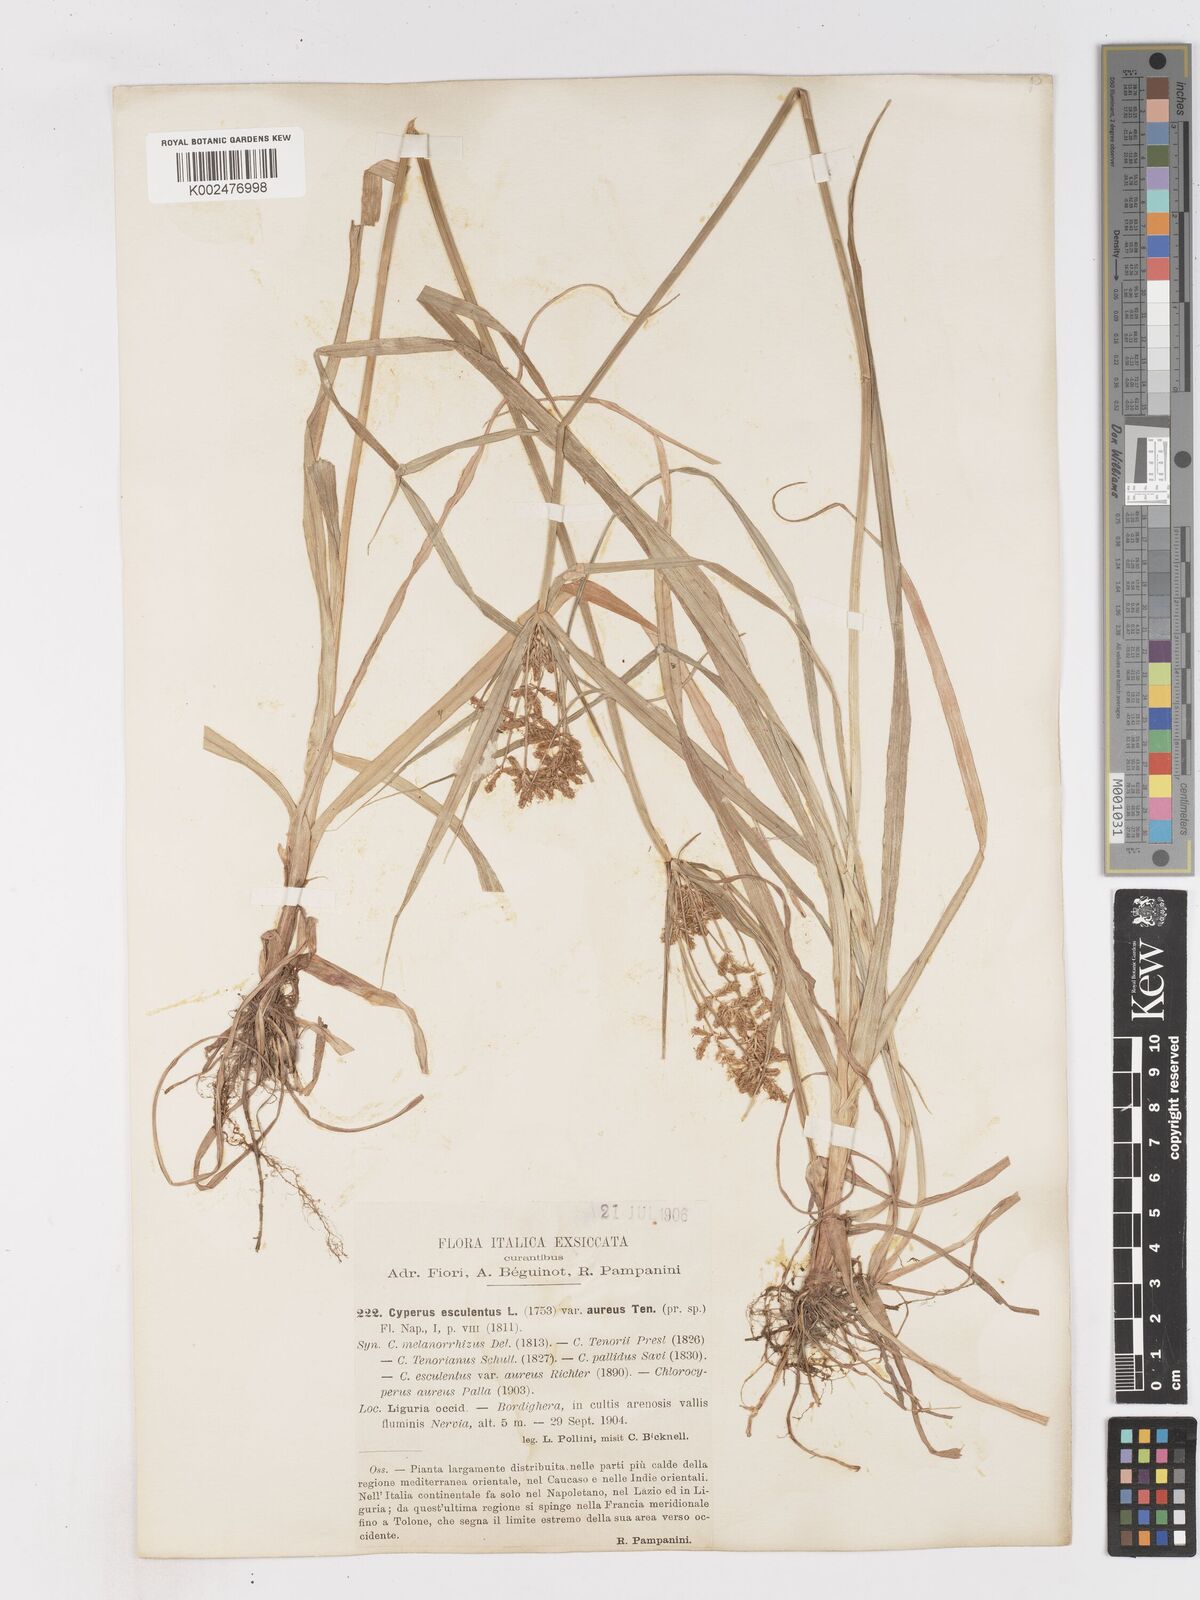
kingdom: Plantae
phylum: Tracheophyta
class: Liliopsida
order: Poales
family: Cyperaceae
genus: Cyperus
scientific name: Cyperus esculentus
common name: Yellow nutsedge
